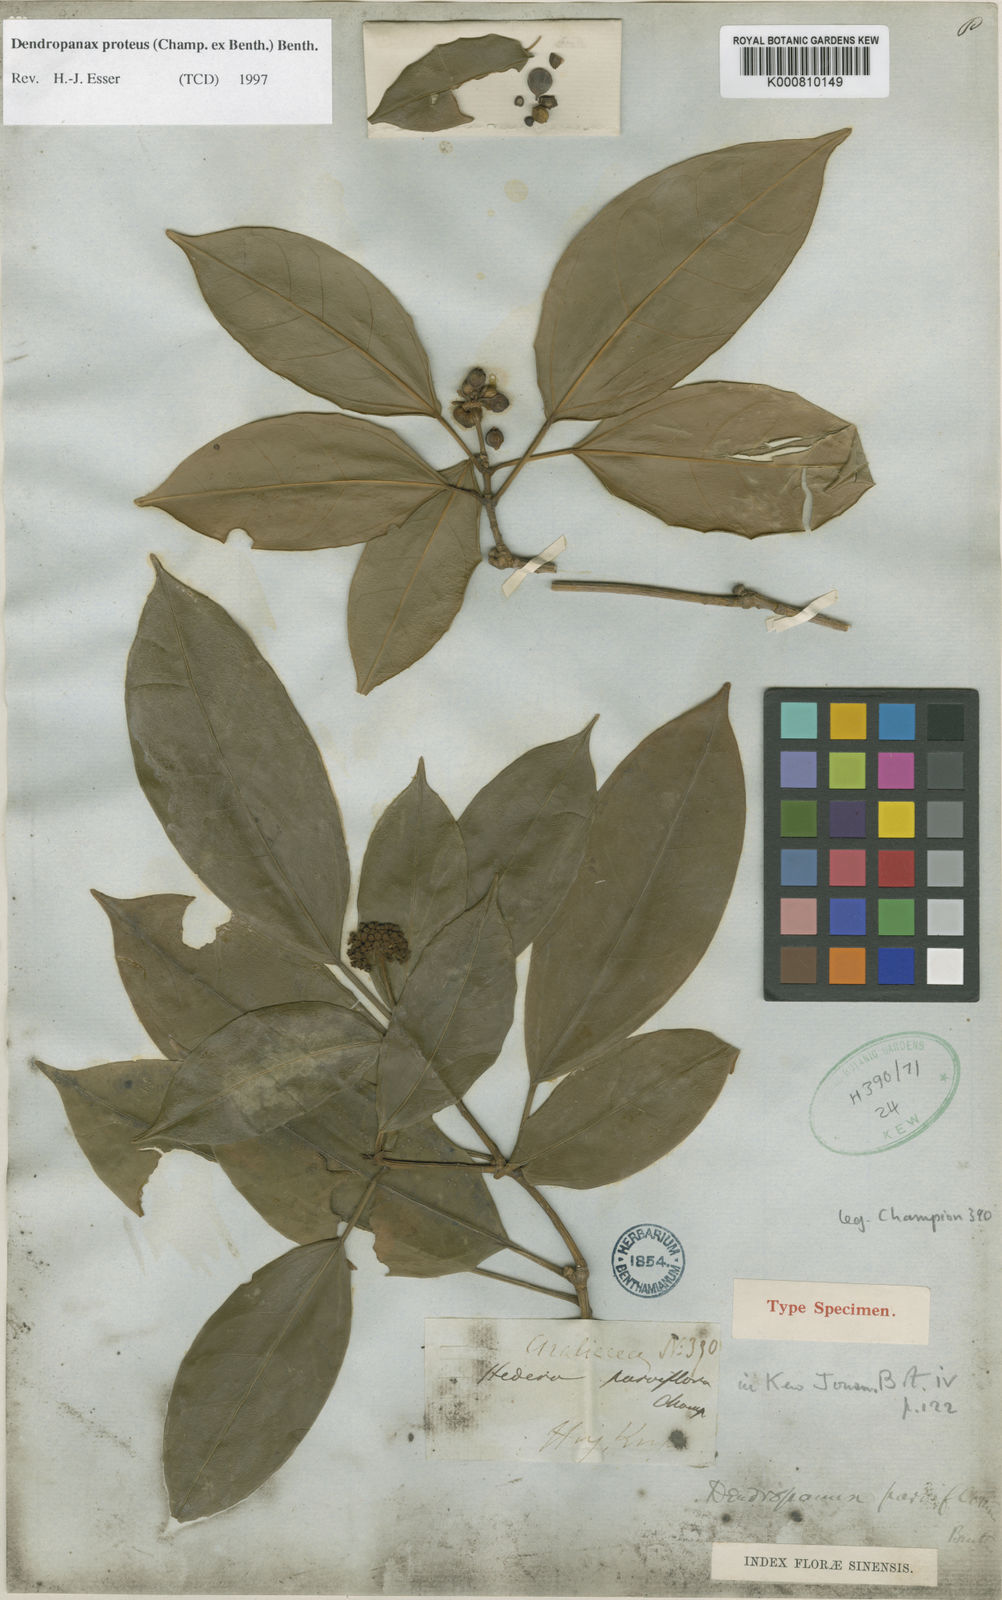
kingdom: Plantae
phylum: Tracheophyta
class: Magnoliopsida
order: Apiales
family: Araliaceae
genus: Dendropanax
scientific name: Dendropanax proteus
